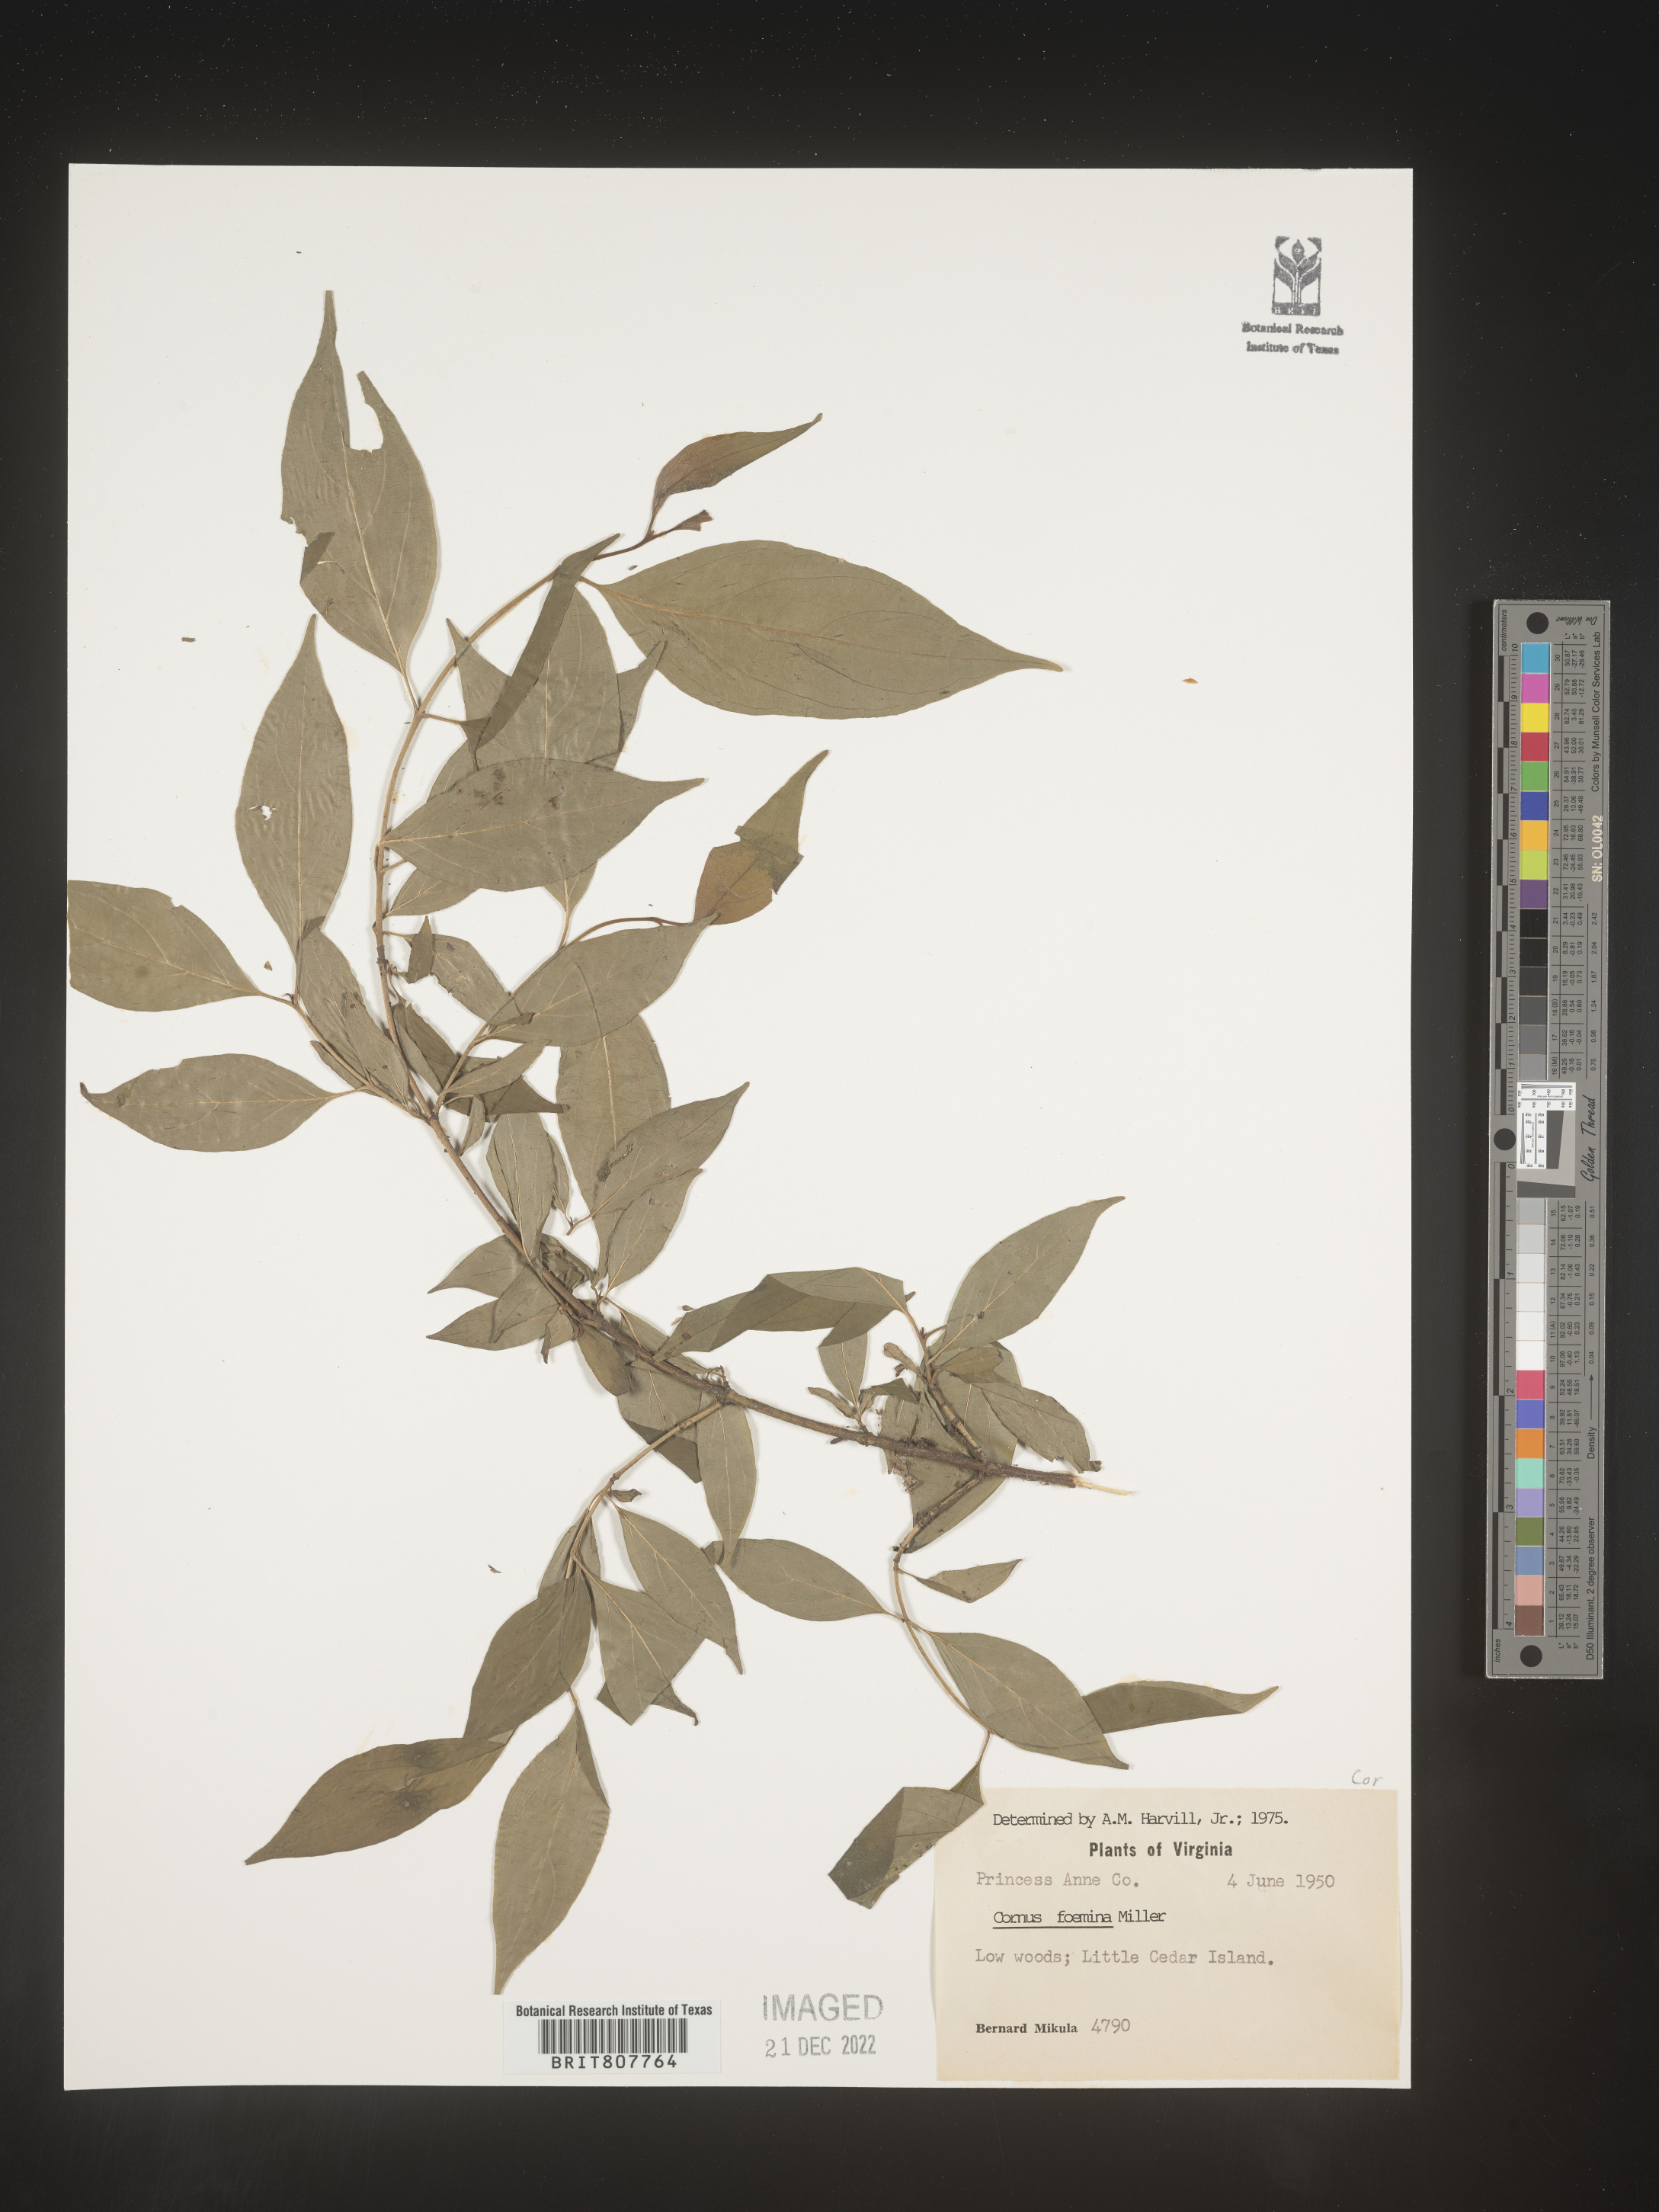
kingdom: Plantae
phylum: Tracheophyta
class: Magnoliopsida
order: Cornales
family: Cornaceae
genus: Cornus
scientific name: Cornus foemina
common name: Swamp dogwood
